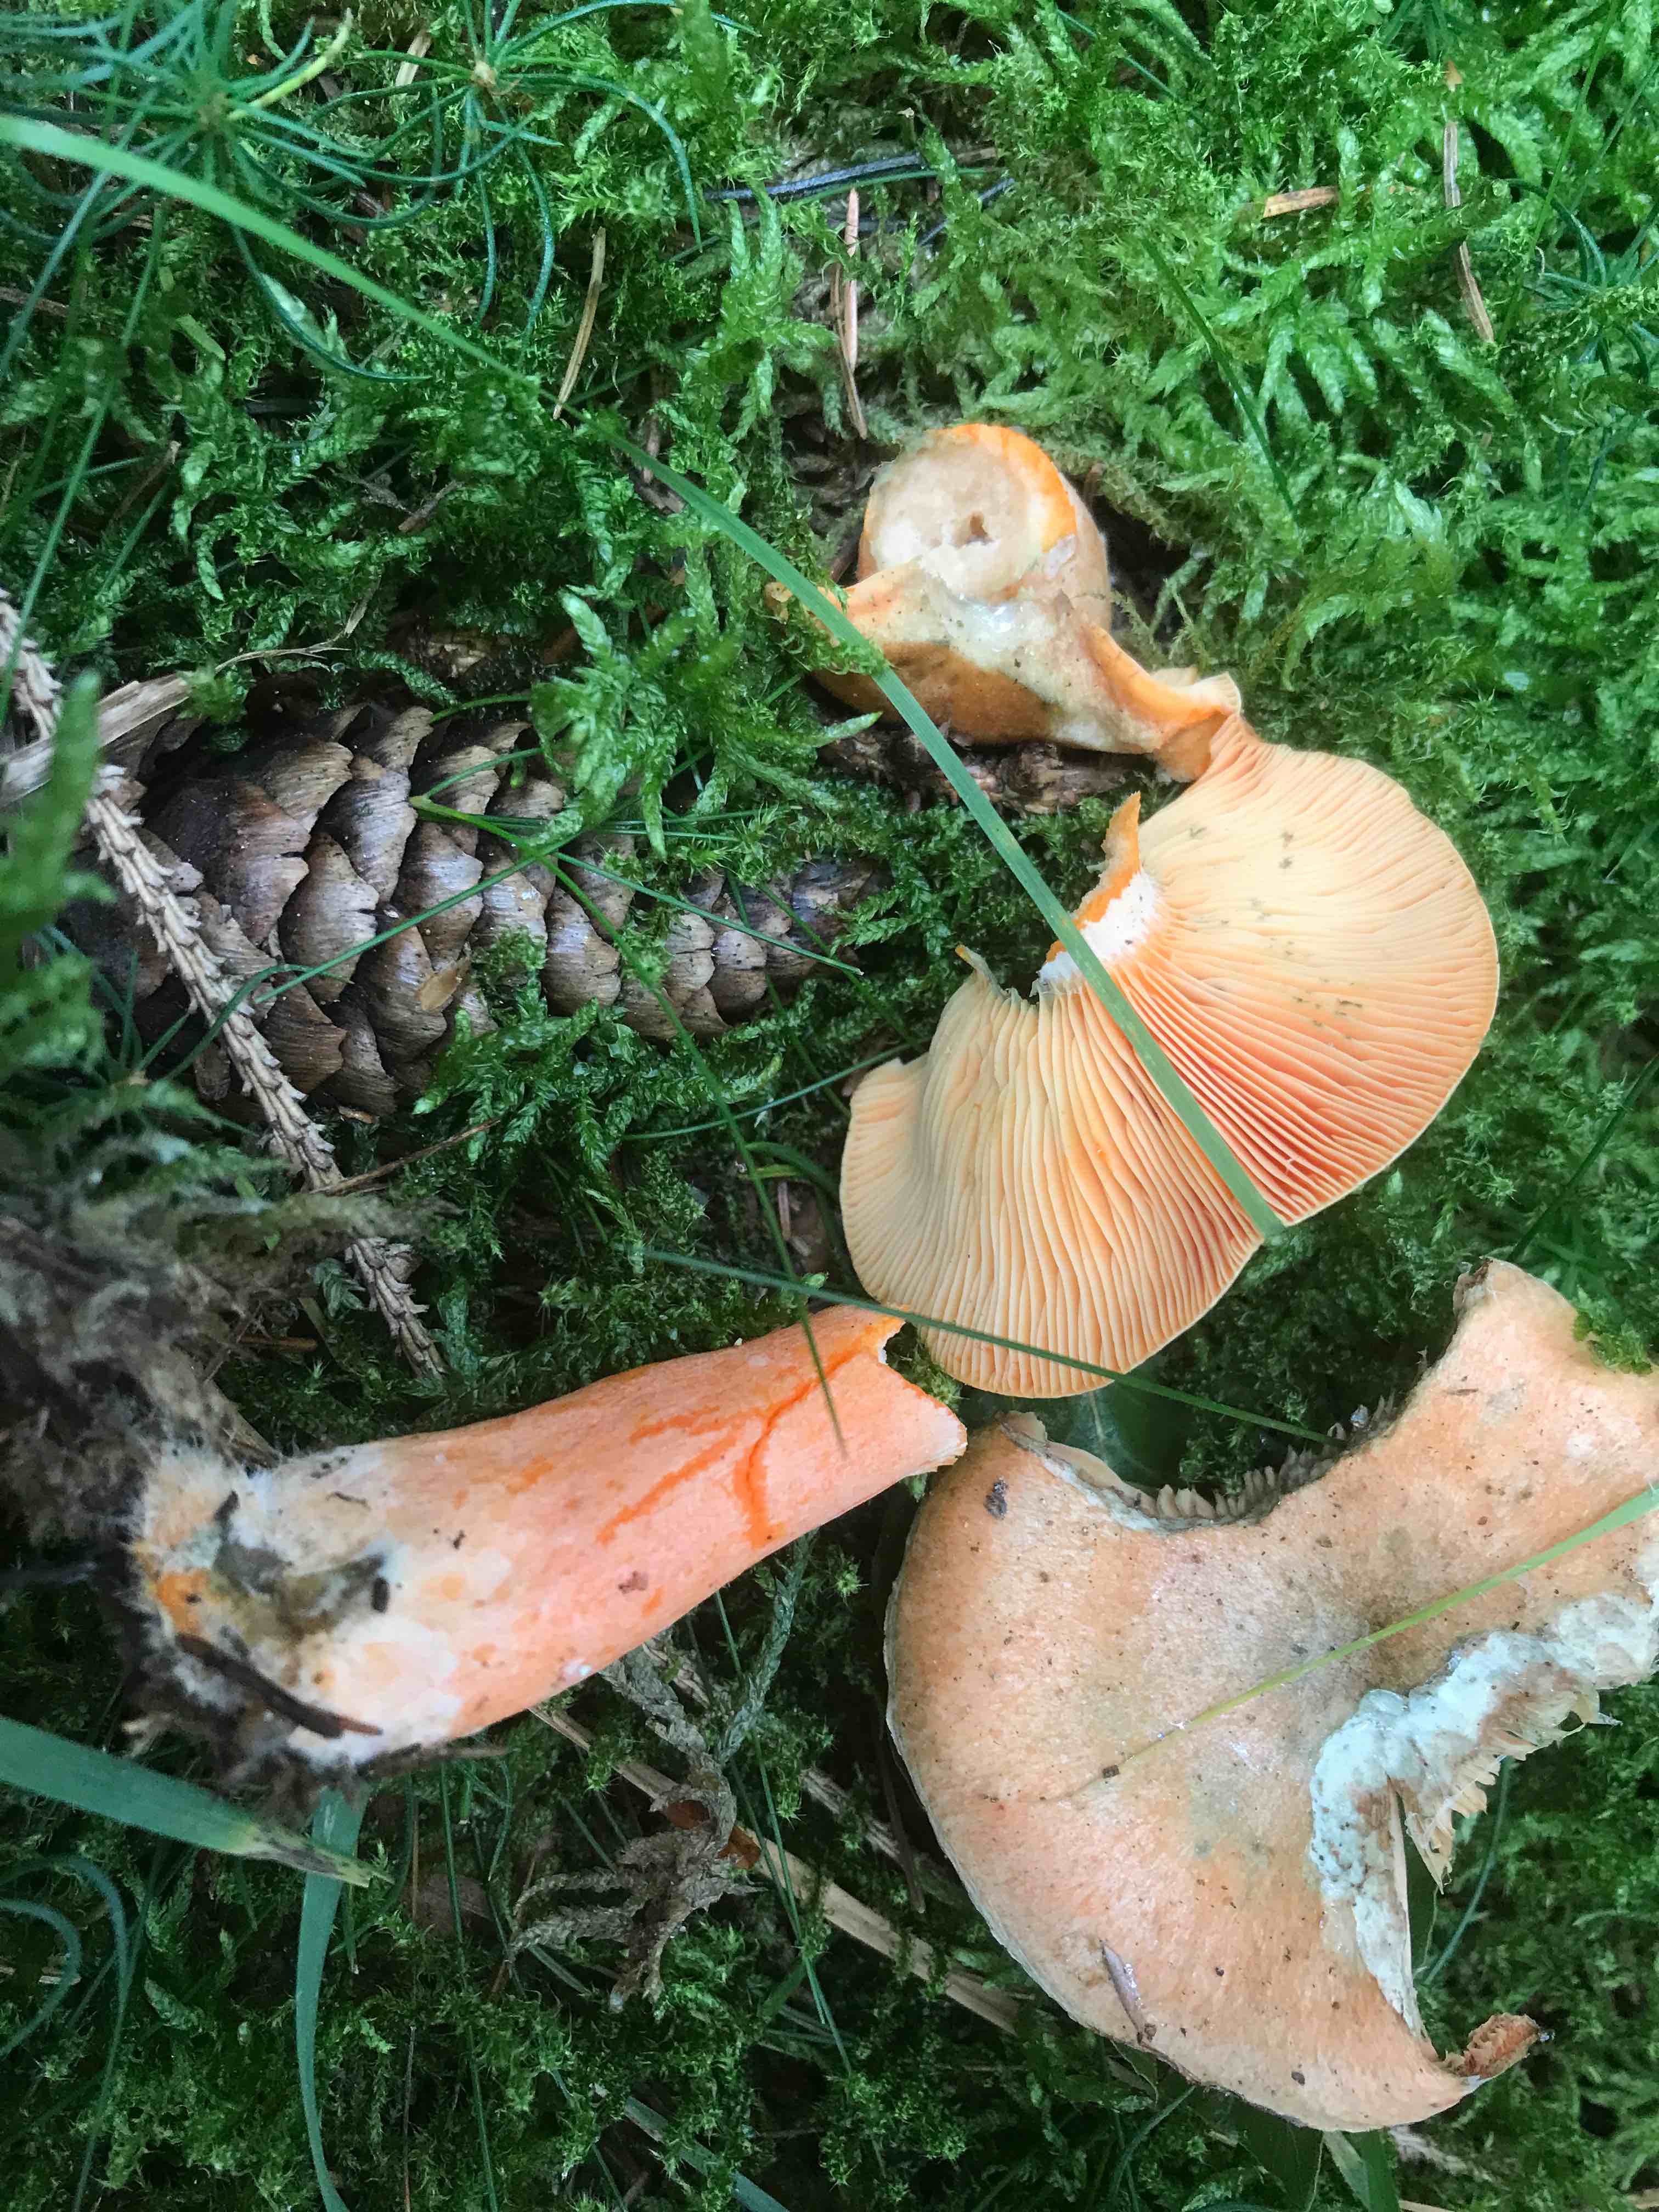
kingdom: Fungi
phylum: Basidiomycota
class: Agaricomycetes
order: Russulales
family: Russulaceae
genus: Lactarius
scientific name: Lactarius deterrimus
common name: gran-mælkehat
